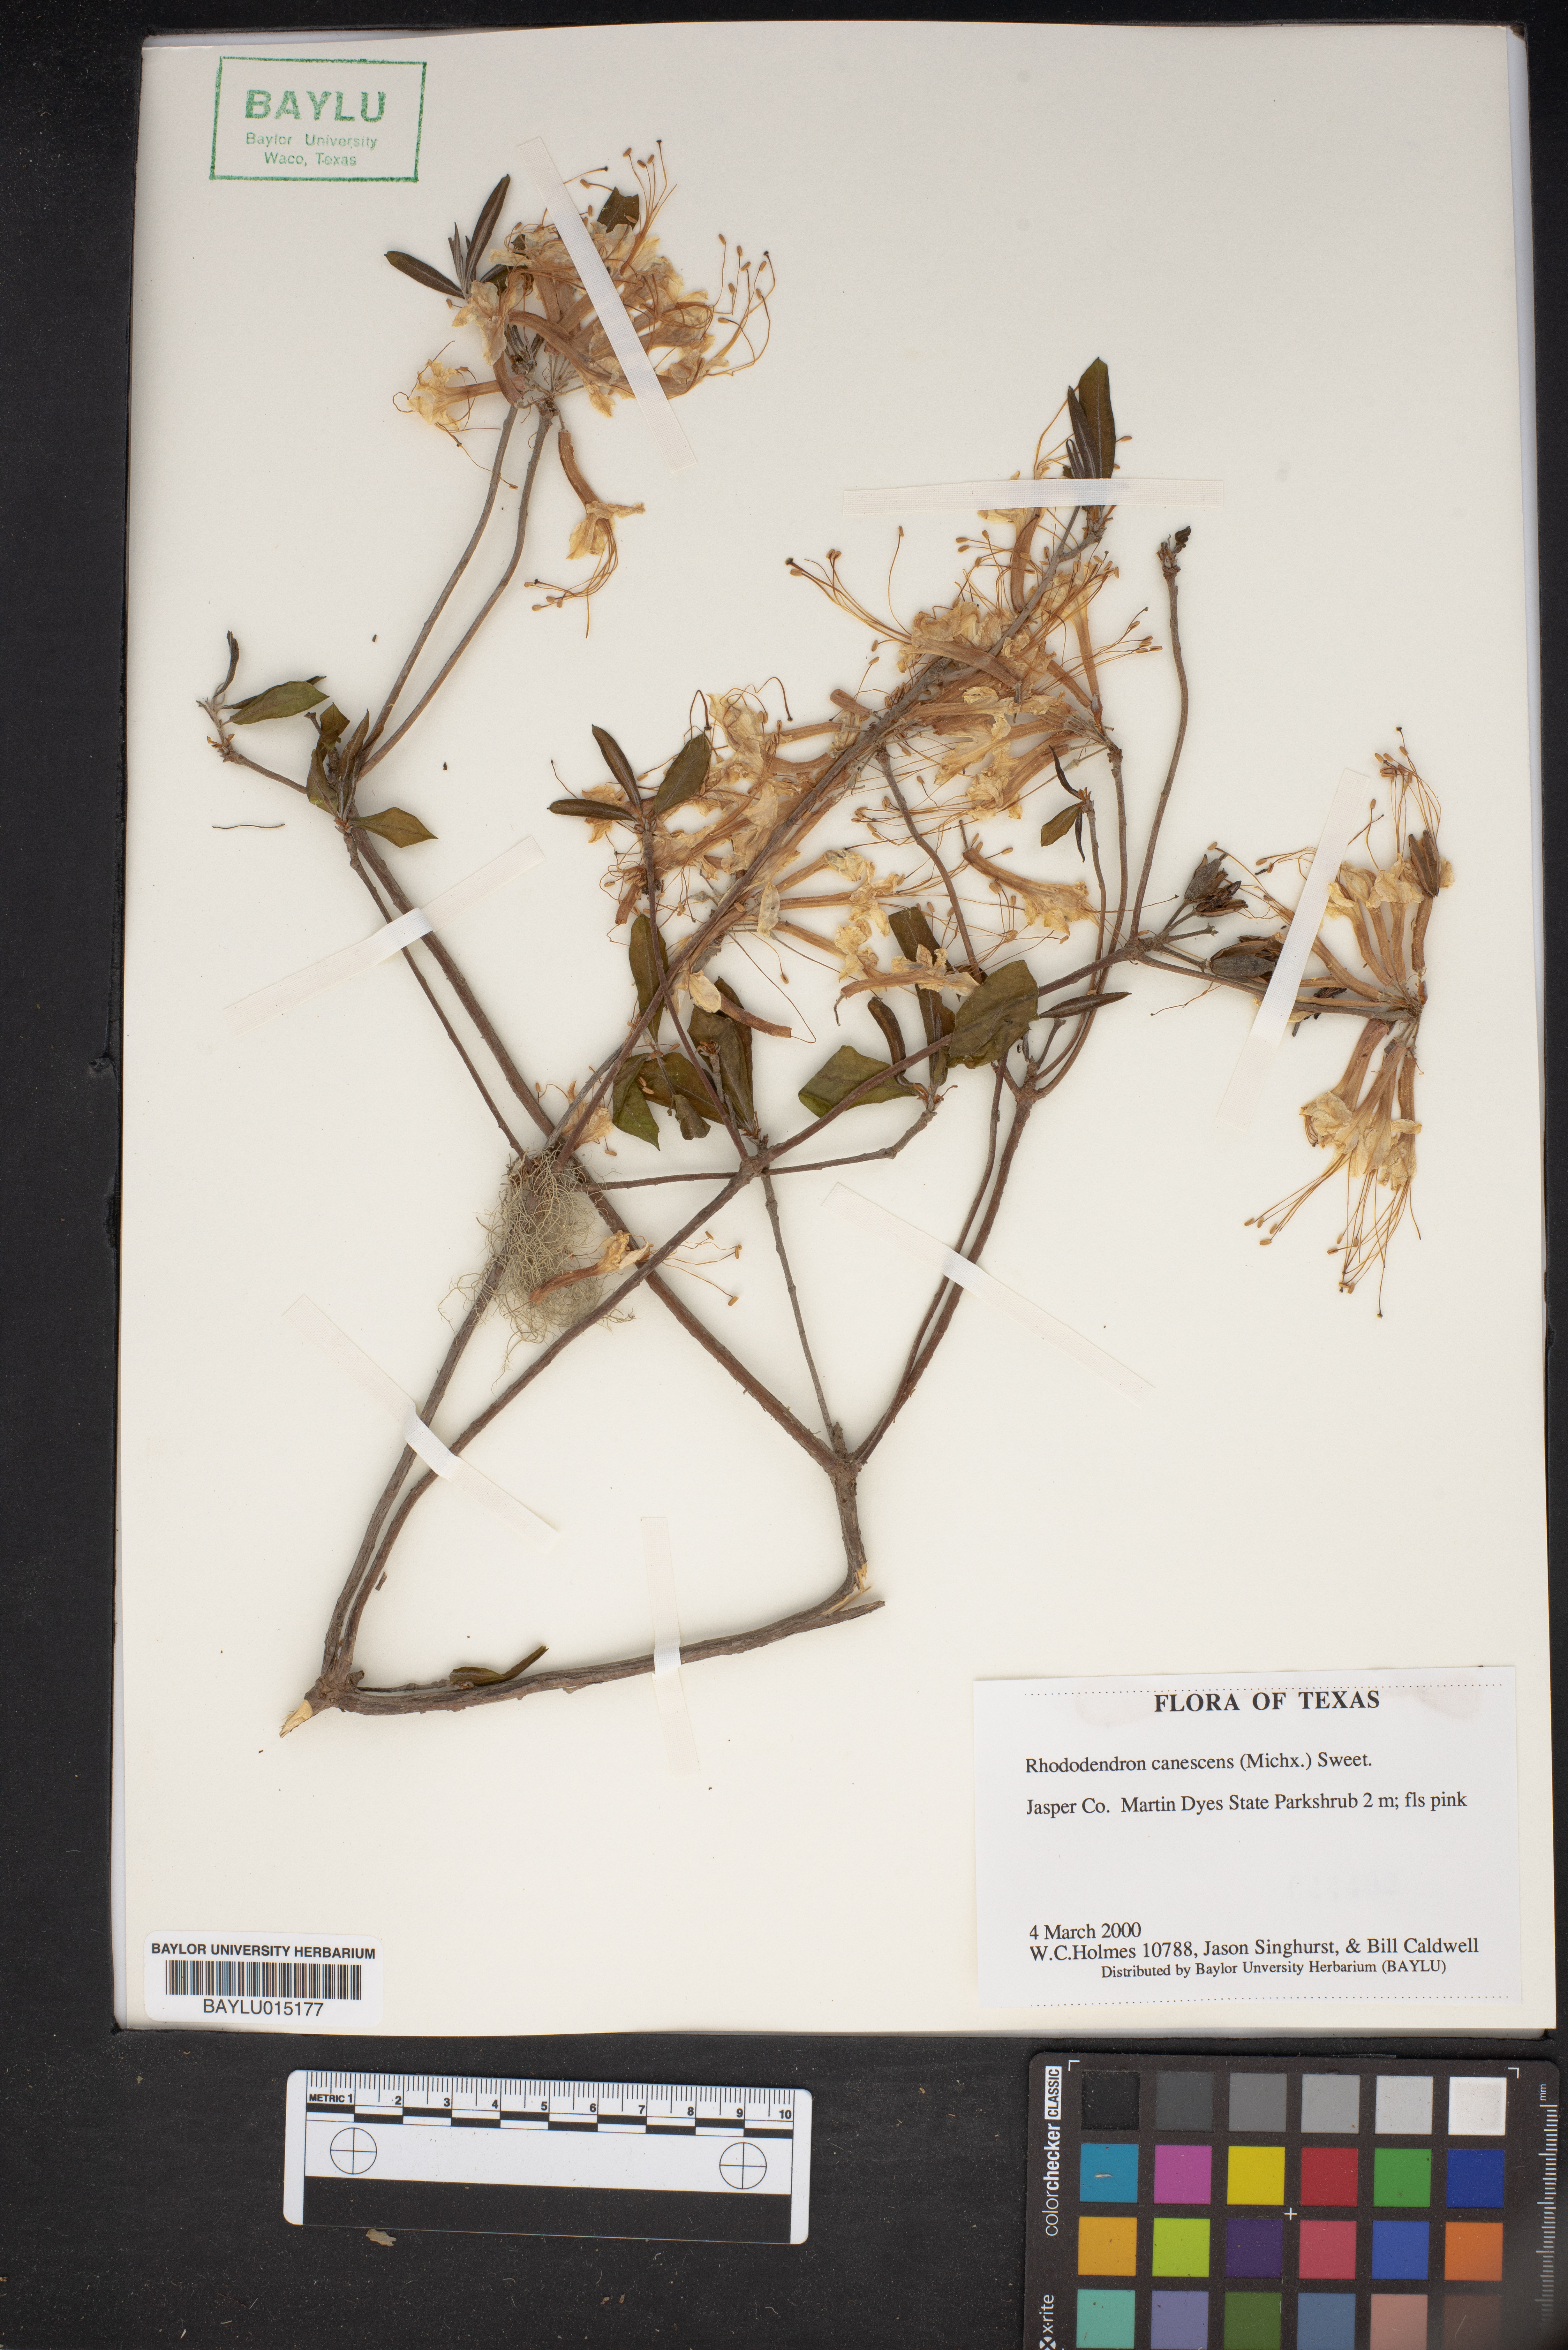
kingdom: Plantae
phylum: Tracheophyta
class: Magnoliopsida
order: Ericales
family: Ericaceae
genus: Rhododendron
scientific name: Rhododendron canescens
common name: Mountain azalea
